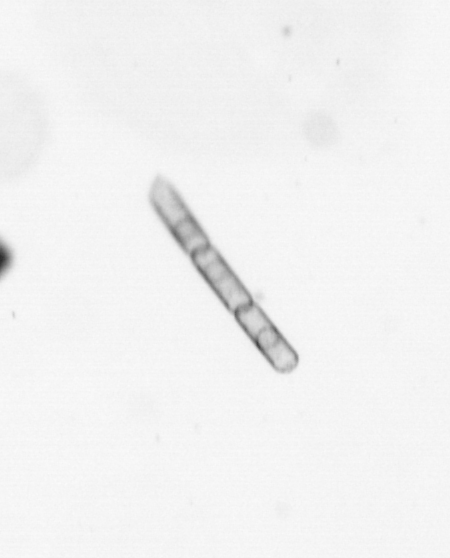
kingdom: Chromista
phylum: Ochrophyta
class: Bacillariophyceae
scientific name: Bacillariophyceae
